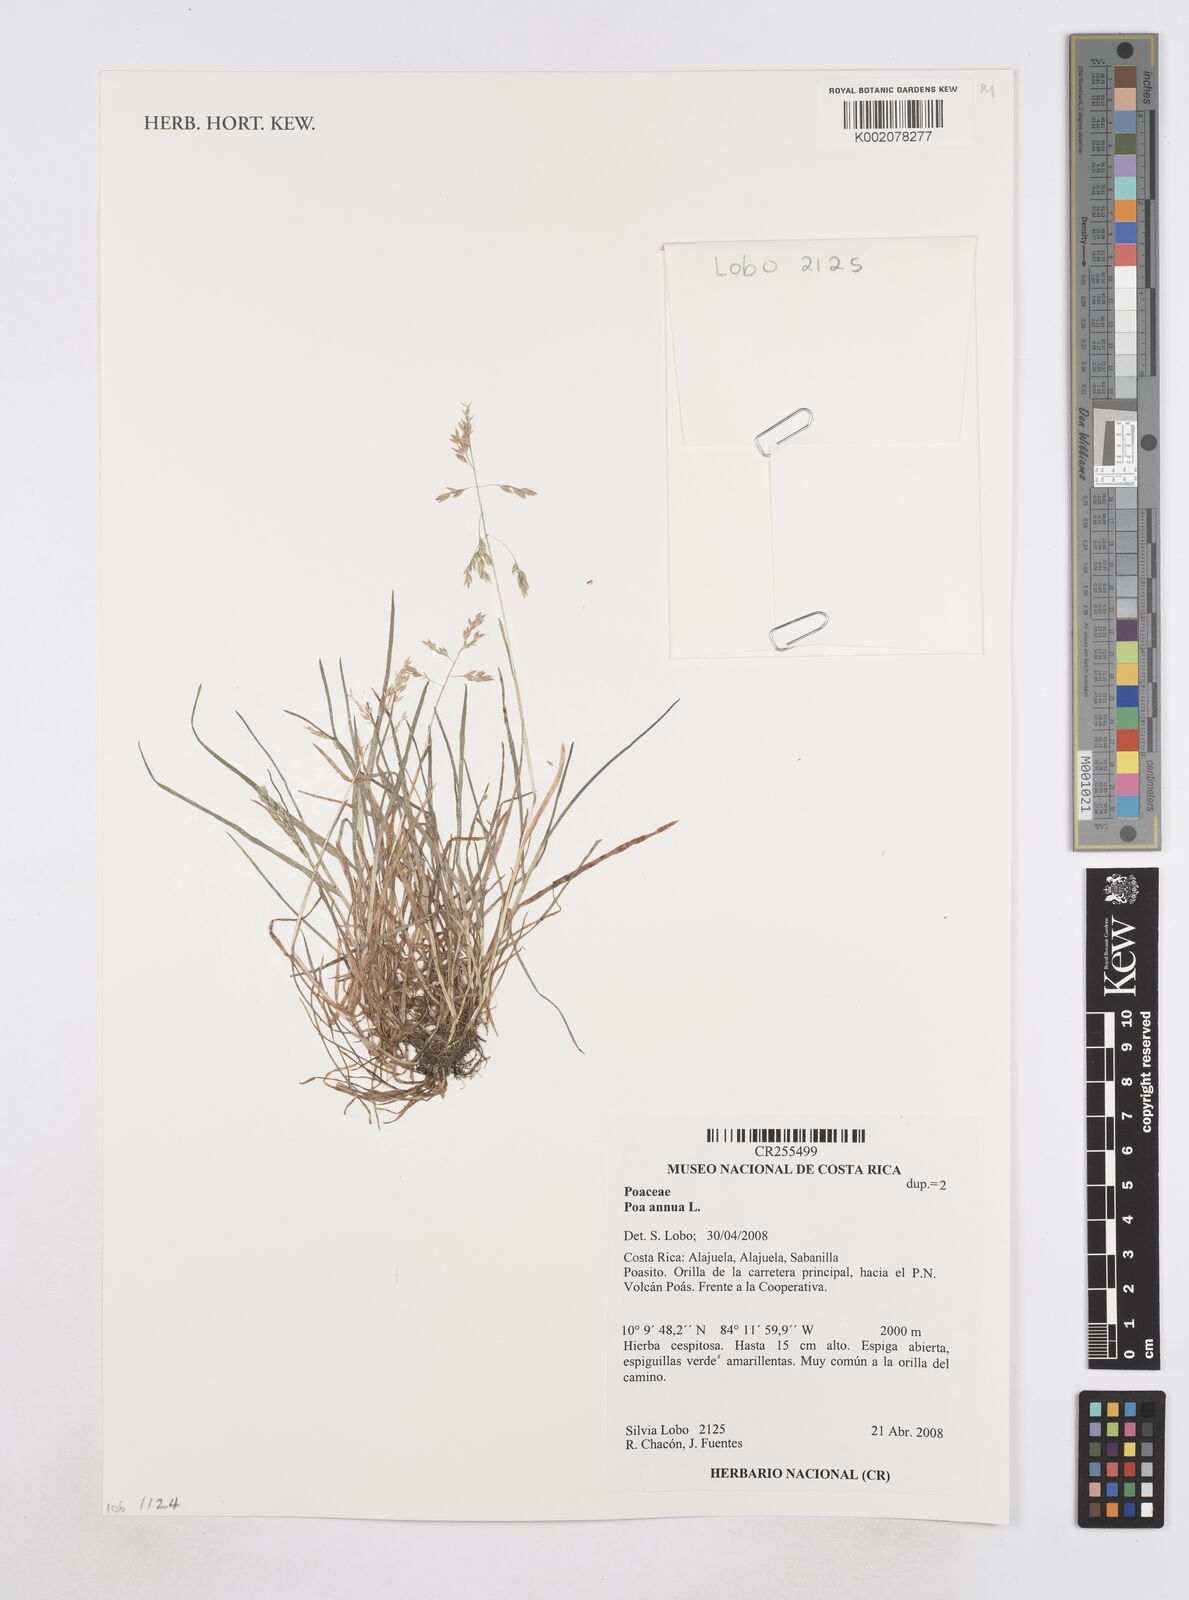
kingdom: Plantae
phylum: Tracheophyta
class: Liliopsida
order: Poales
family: Poaceae
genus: Poa
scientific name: Poa annua
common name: Annual bluegrass
